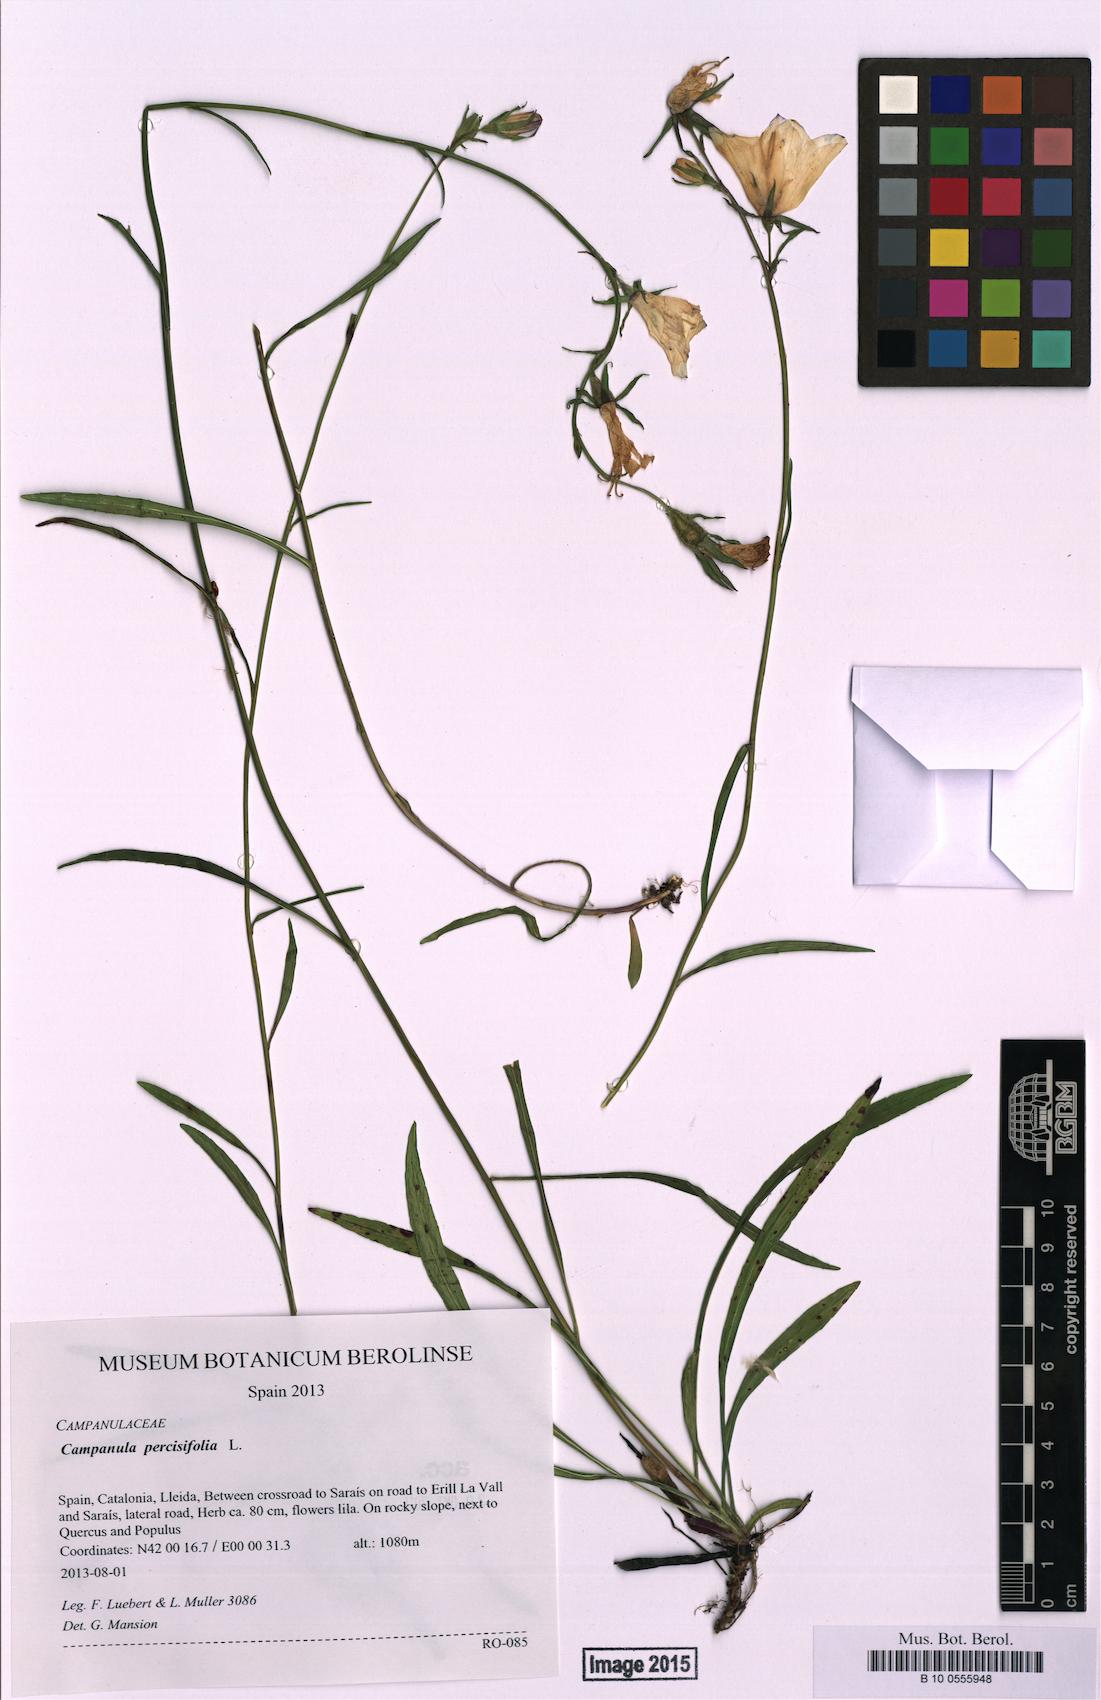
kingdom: Plantae
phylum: Tracheophyta
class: Magnoliopsida
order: Asterales
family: Campanulaceae
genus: Campanula
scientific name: Campanula persicifolia
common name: Peach-leaved bellflower
